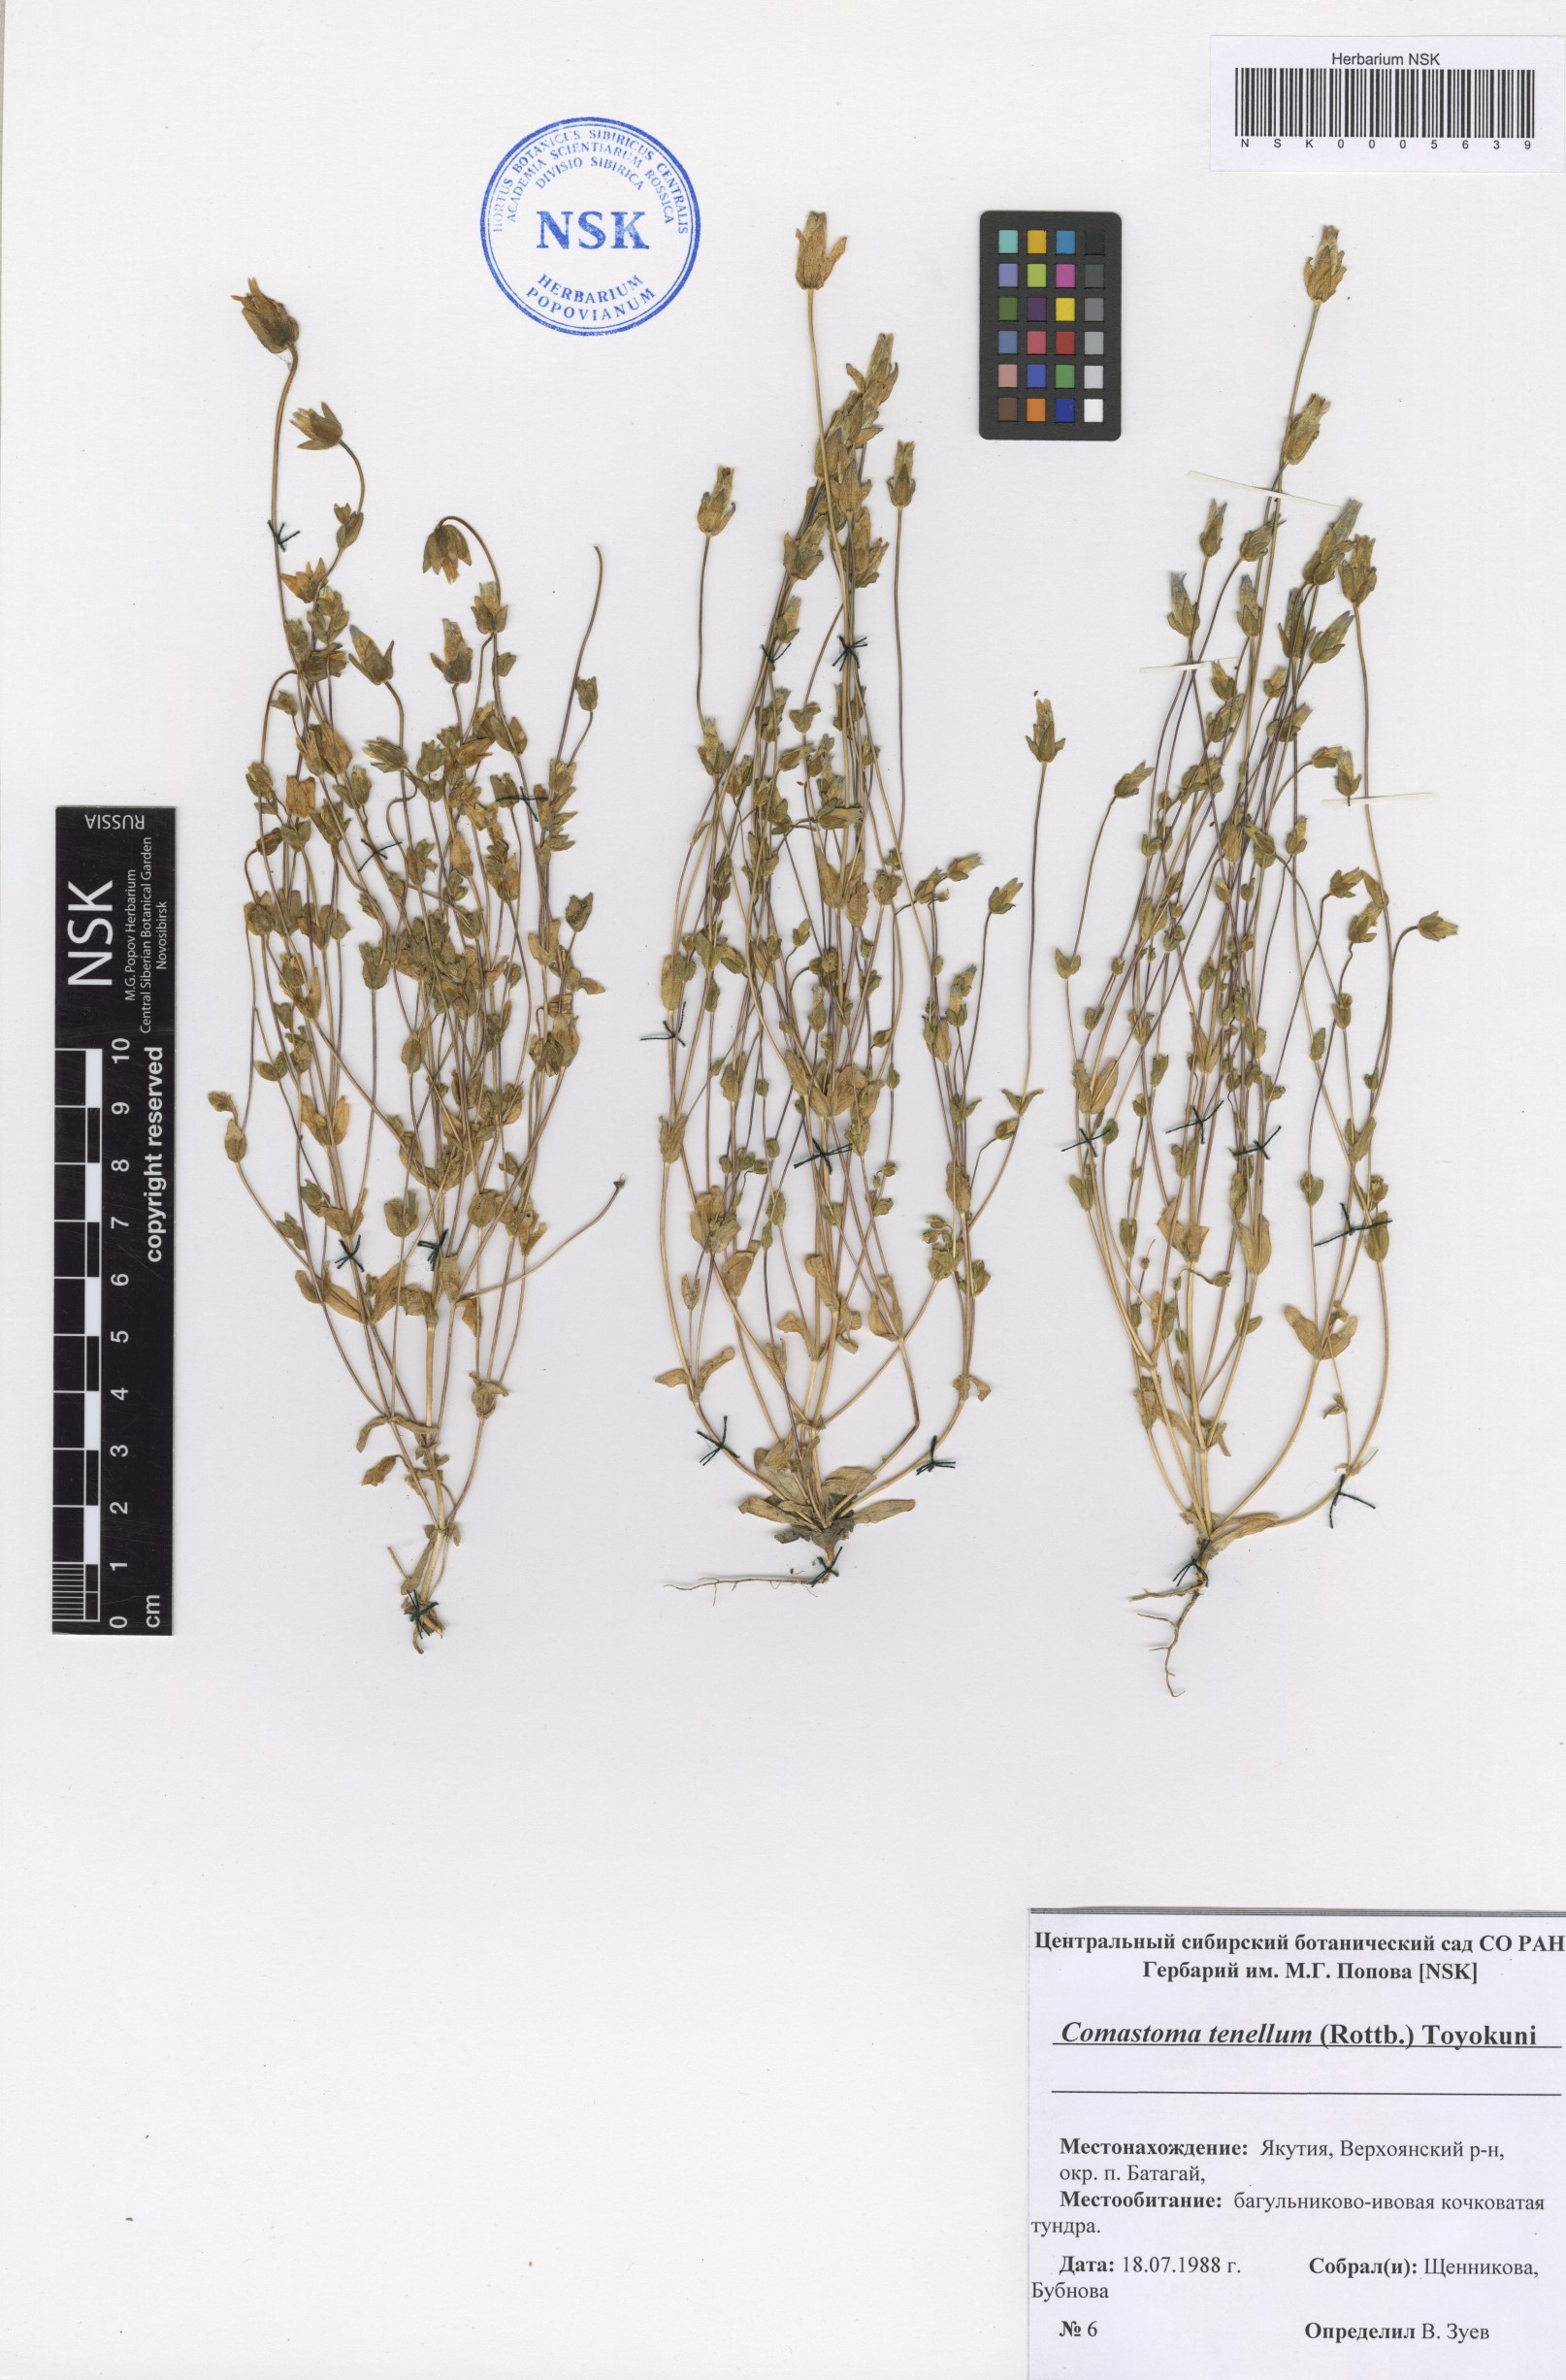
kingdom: Plantae
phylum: Tracheophyta
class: Magnoliopsida
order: Gentianales
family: Gentianaceae
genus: Comastoma
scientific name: Comastoma tenellum
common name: Dane's dwarf gentian
